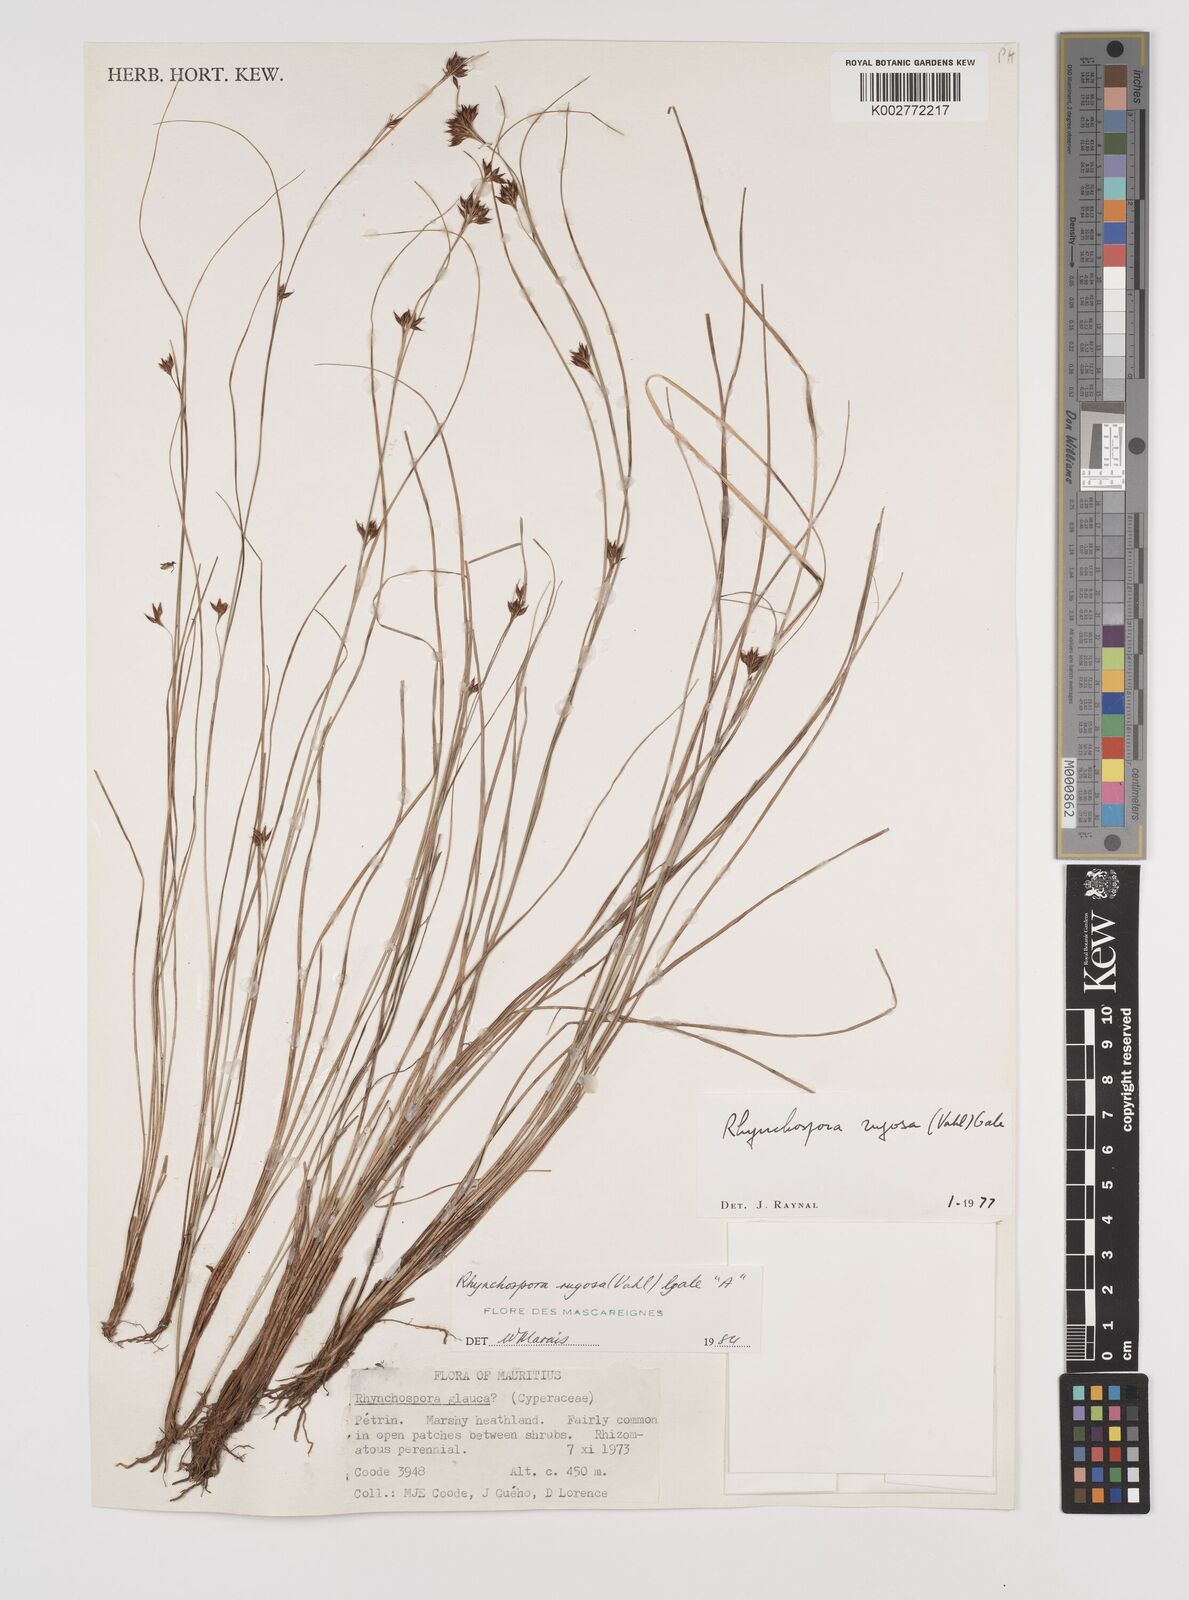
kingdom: Plantae
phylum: Tracheophyta
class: Liliopsida
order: Poales
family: Cyperaceae
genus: Rhynchospora
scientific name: Rhynchospora rugosa
